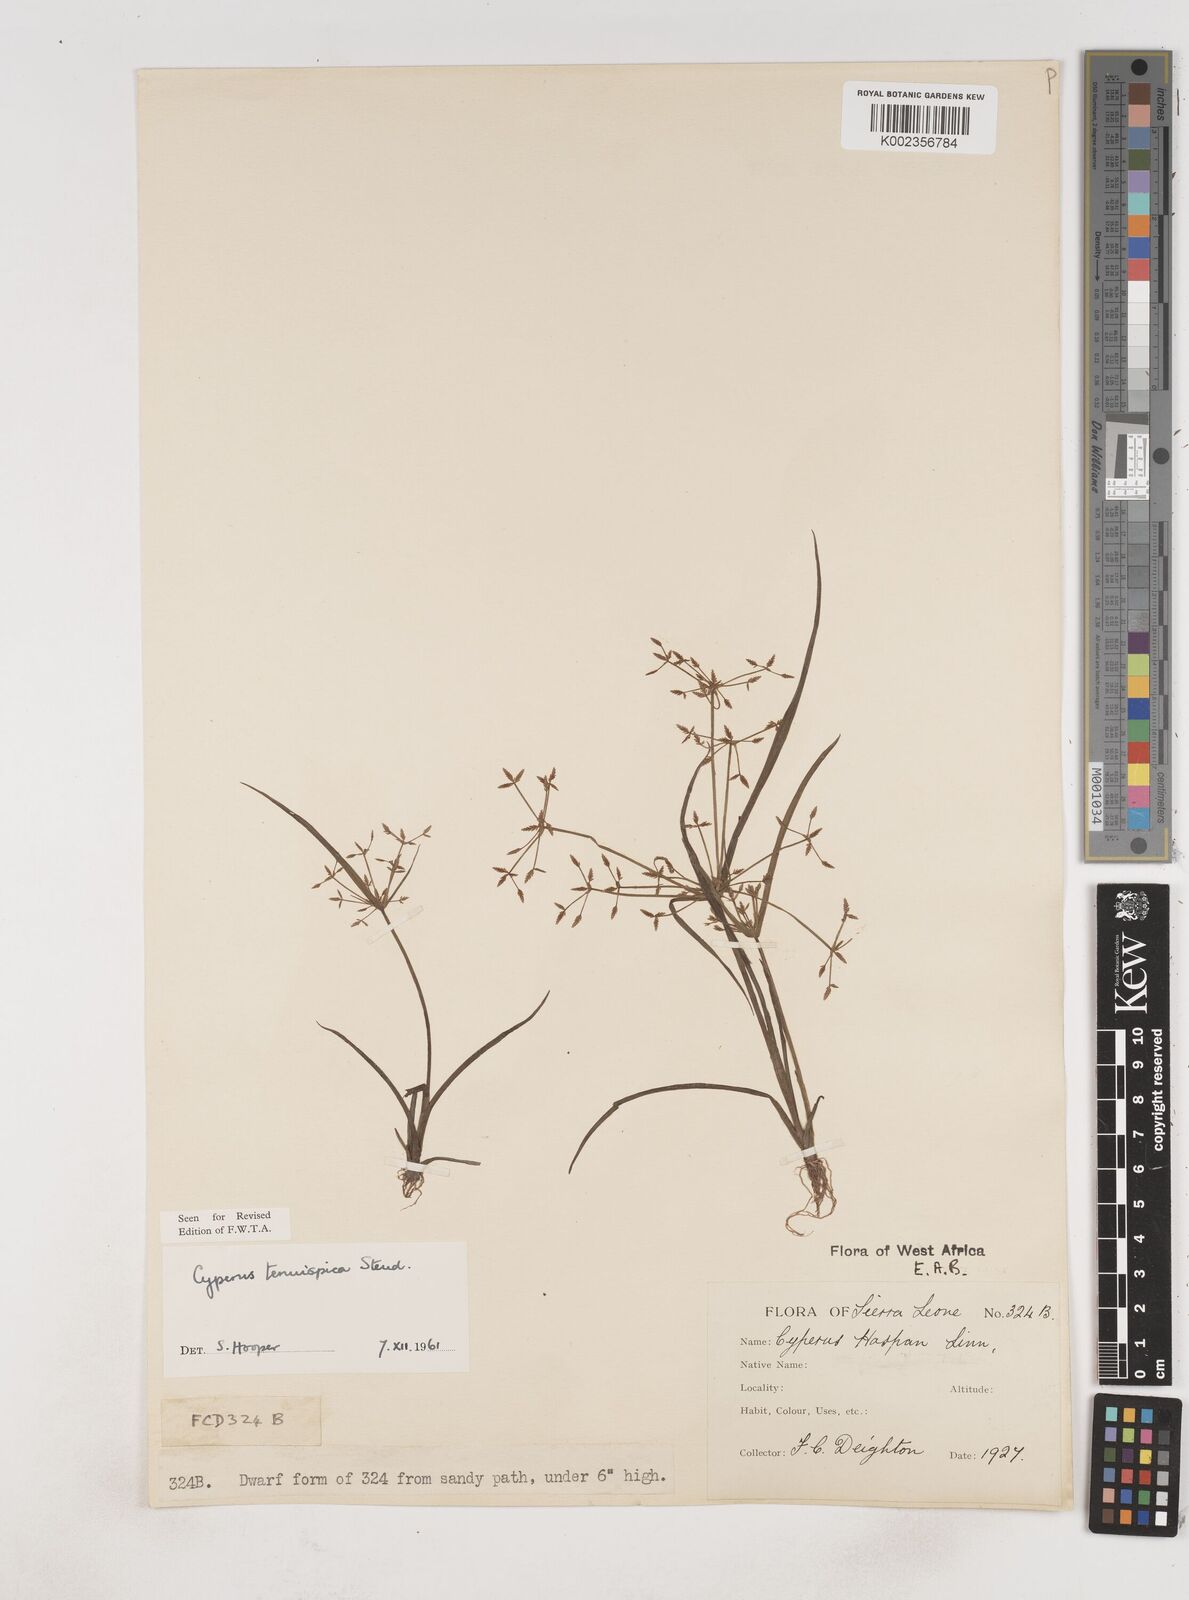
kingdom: Plantae
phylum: Tracheophyta
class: Liliopsida
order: Poales
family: Cyperaceae
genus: Cyperus
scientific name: Cyperus tenuispica
